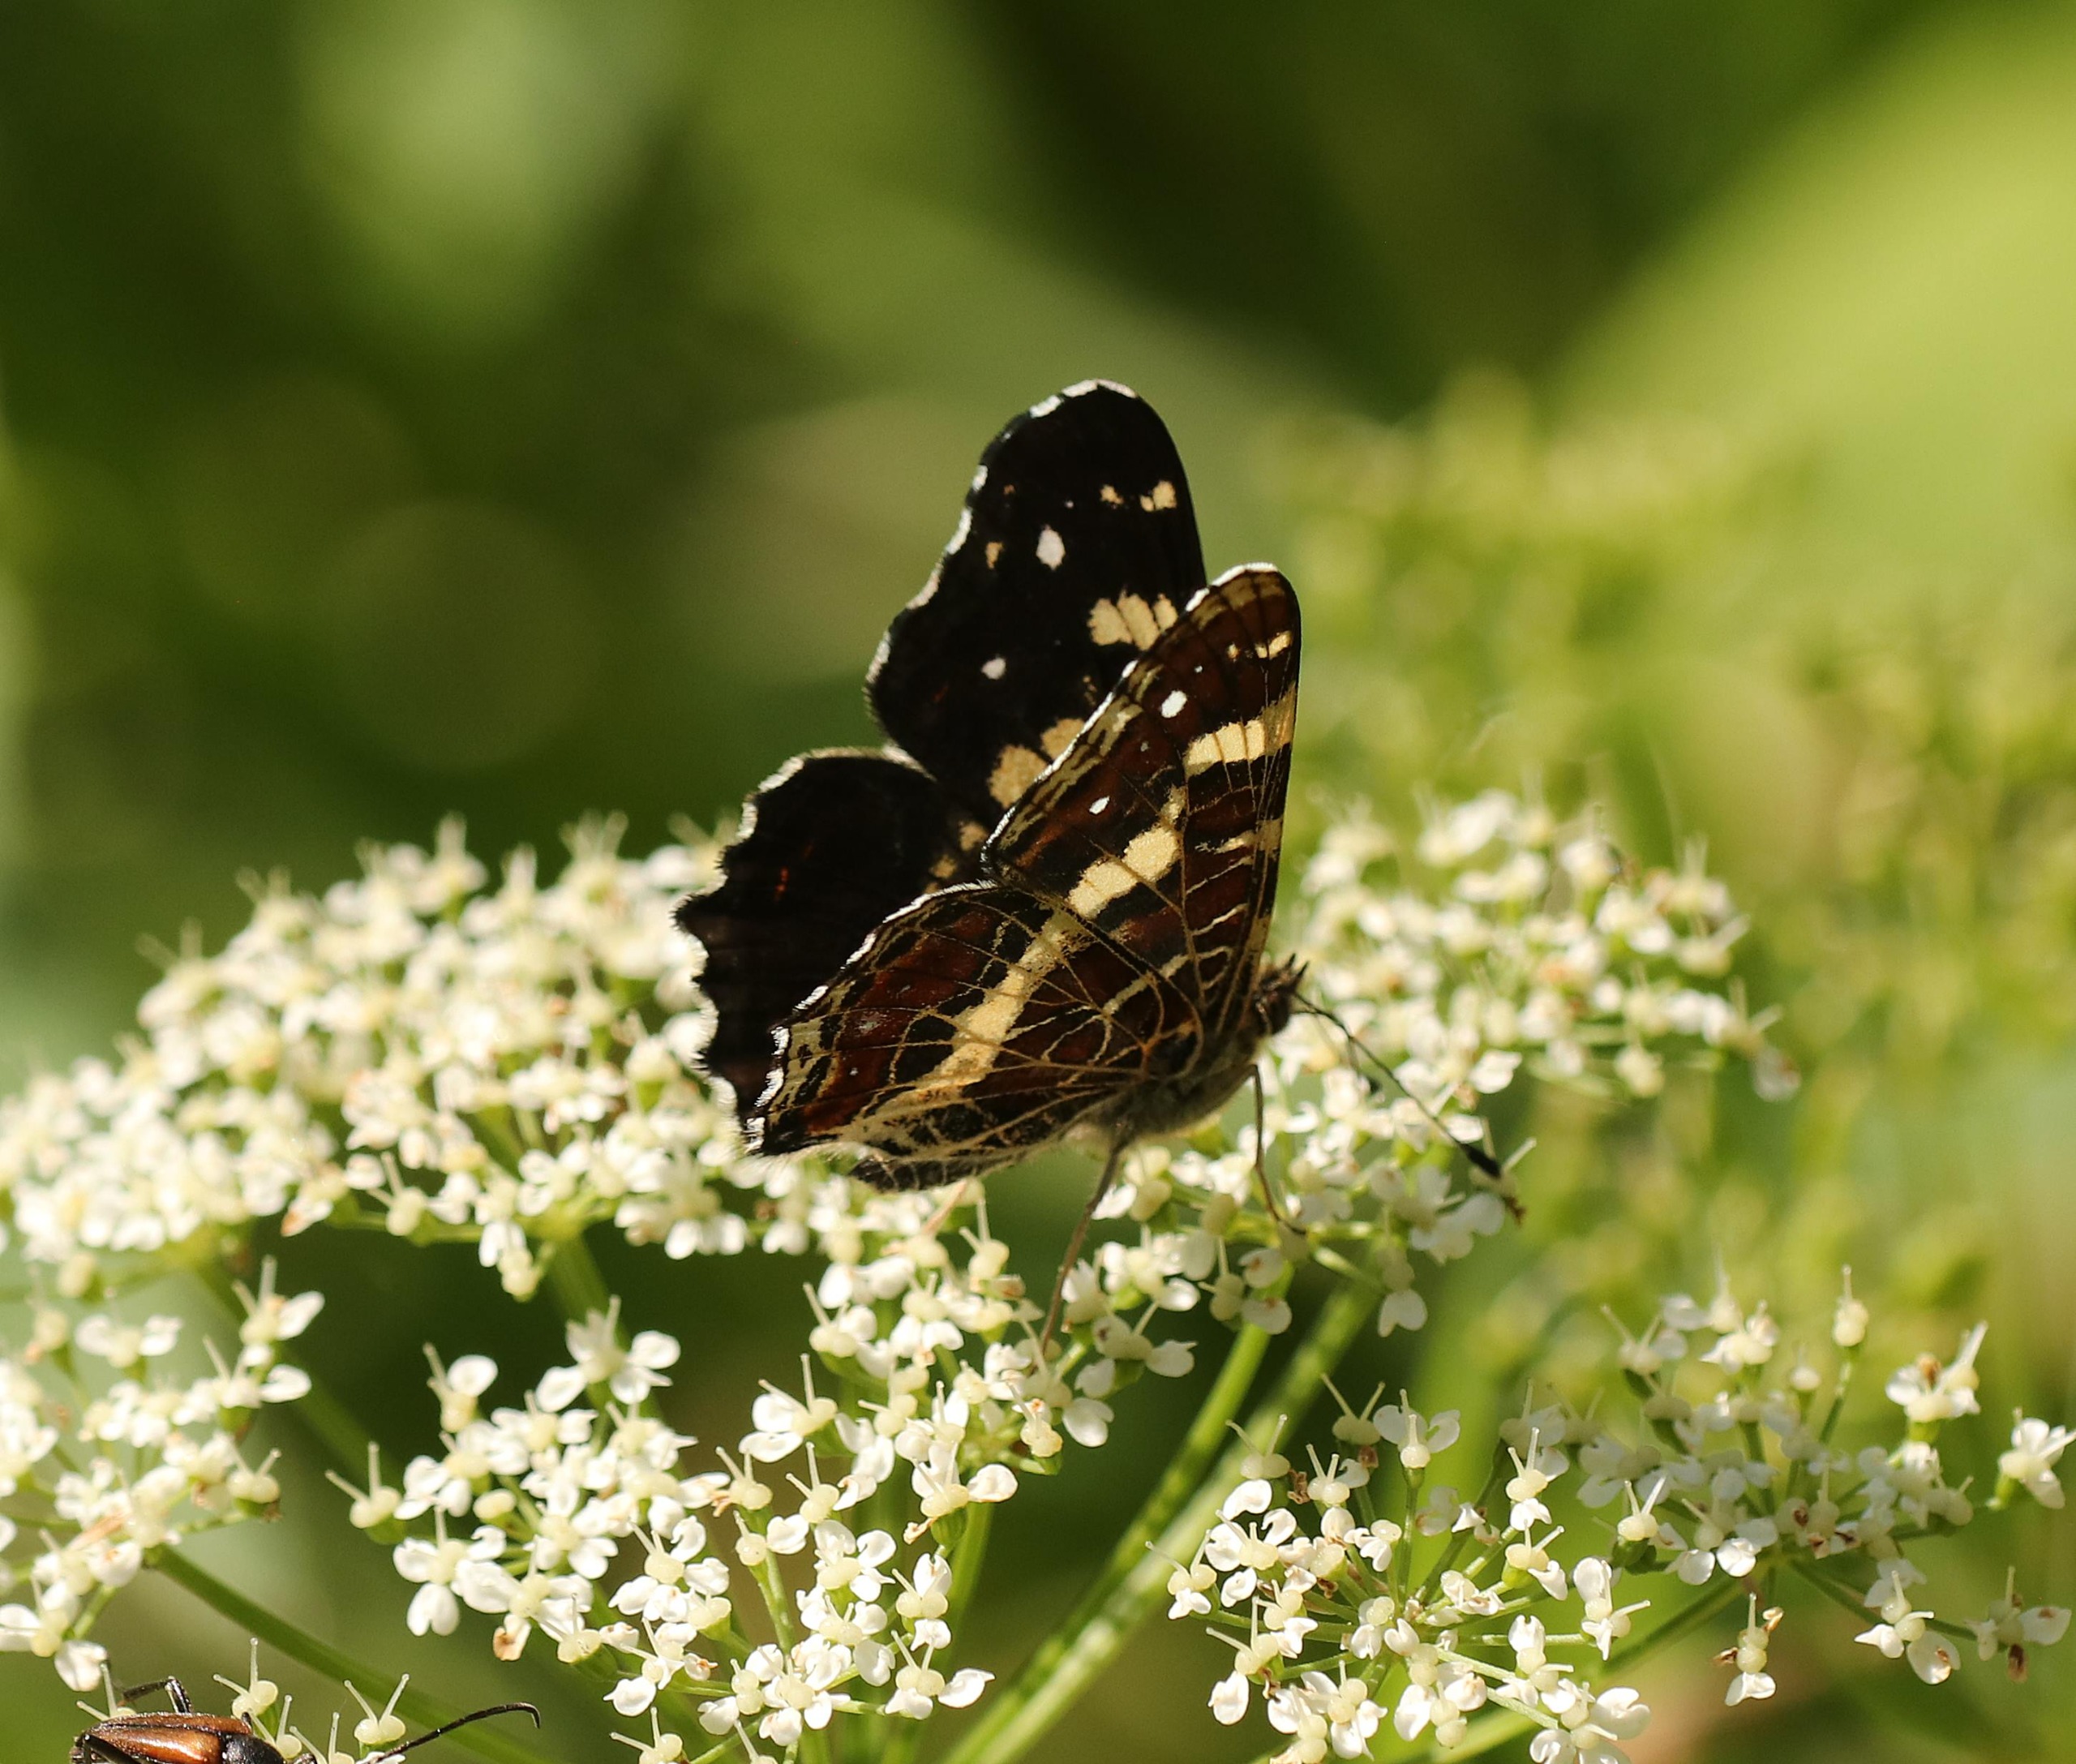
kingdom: Animalia
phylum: Arthropoda
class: Insecta
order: Lepidoptera
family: Nymphalidae
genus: Araschnia
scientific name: Araschnia levana
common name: Nældesommerfugl
